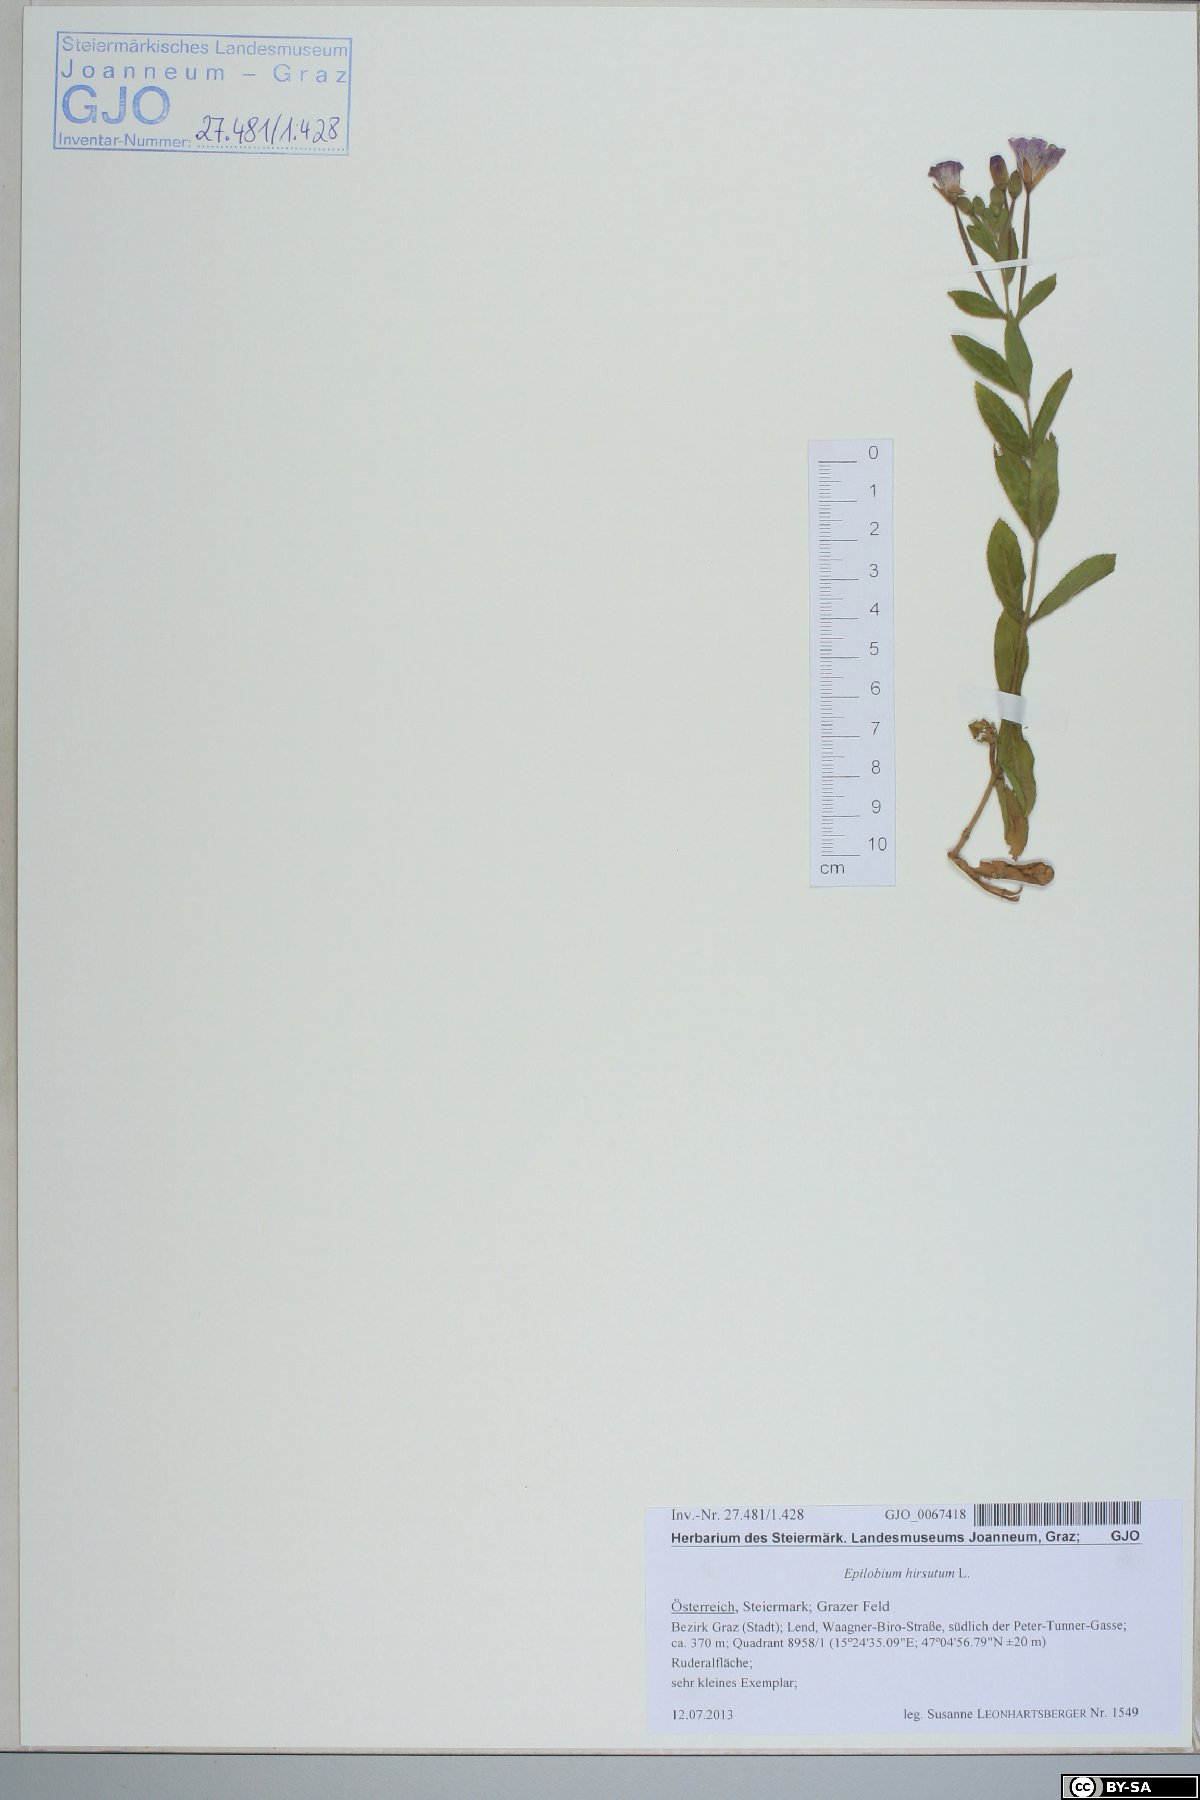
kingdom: Plantae
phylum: Tracheophyta
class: Magnoliopsida
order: Myrtales
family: Onagraceae
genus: Epilobium
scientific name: Epilobium hirsutum
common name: Great willowherb
